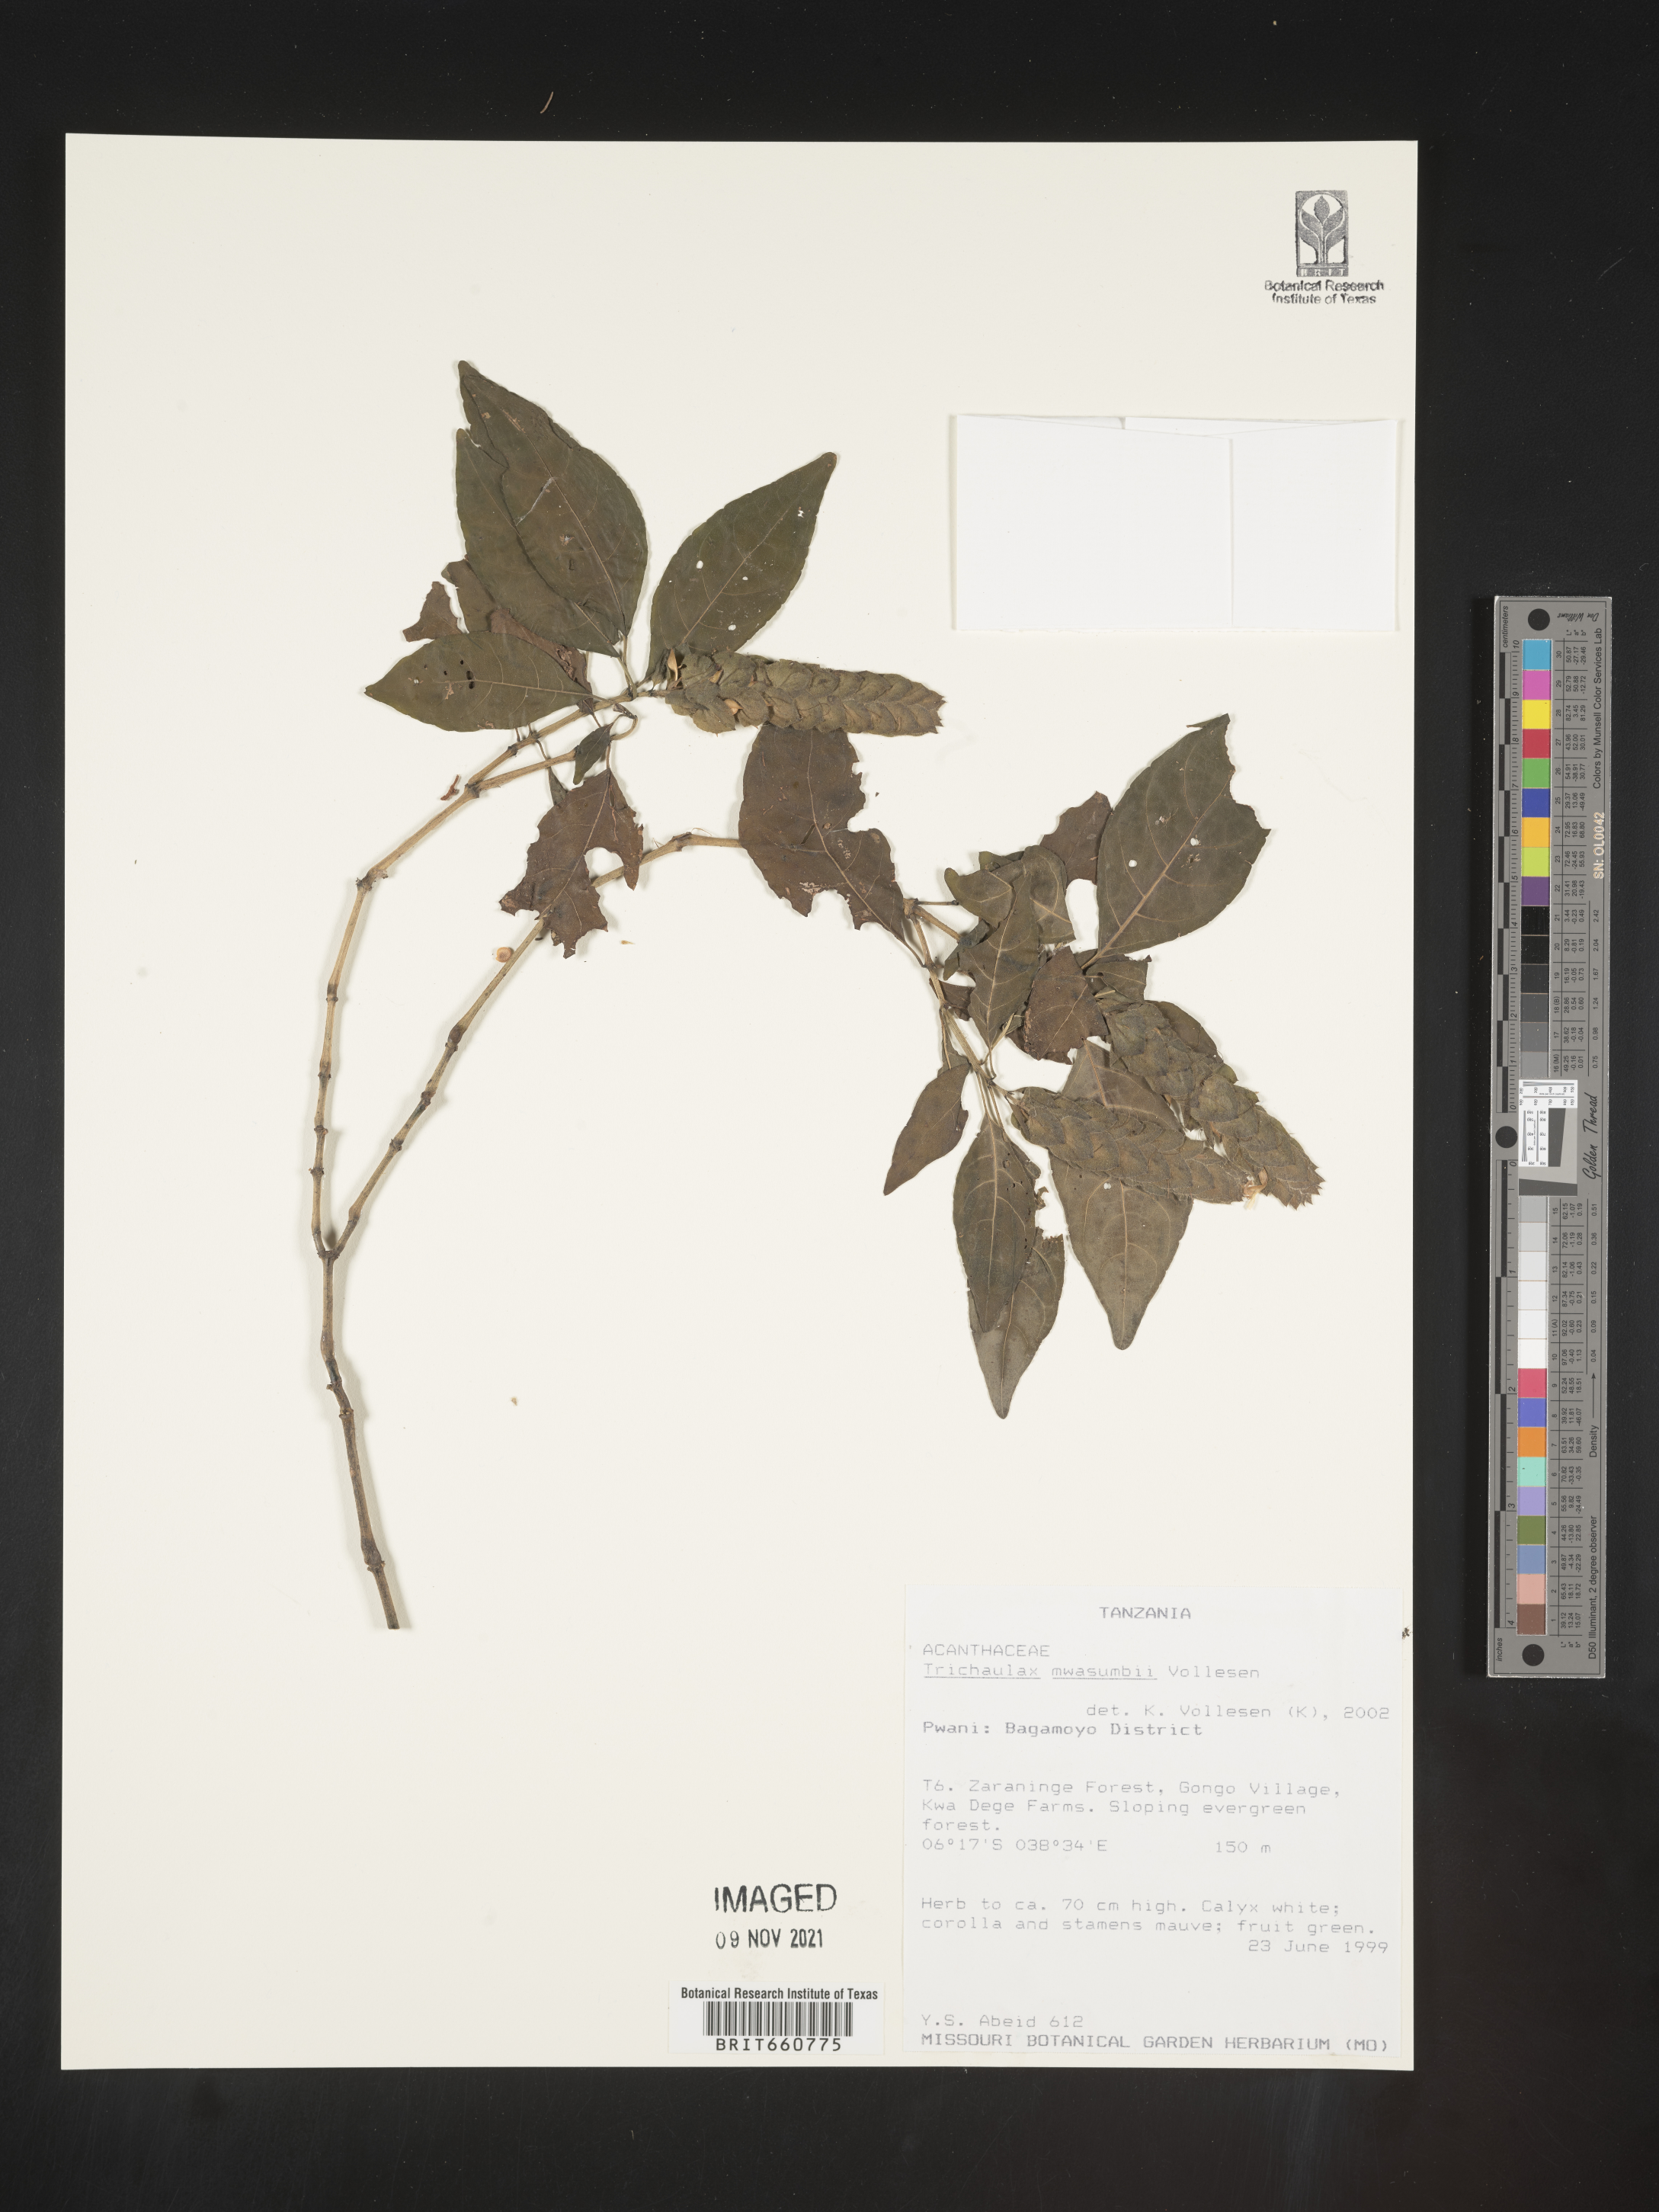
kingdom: Plantae
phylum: Tracheophyta
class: Magnoliopsida
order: Lamiales
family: Acanthaceae
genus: Trichaulax
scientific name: Trichaulax
